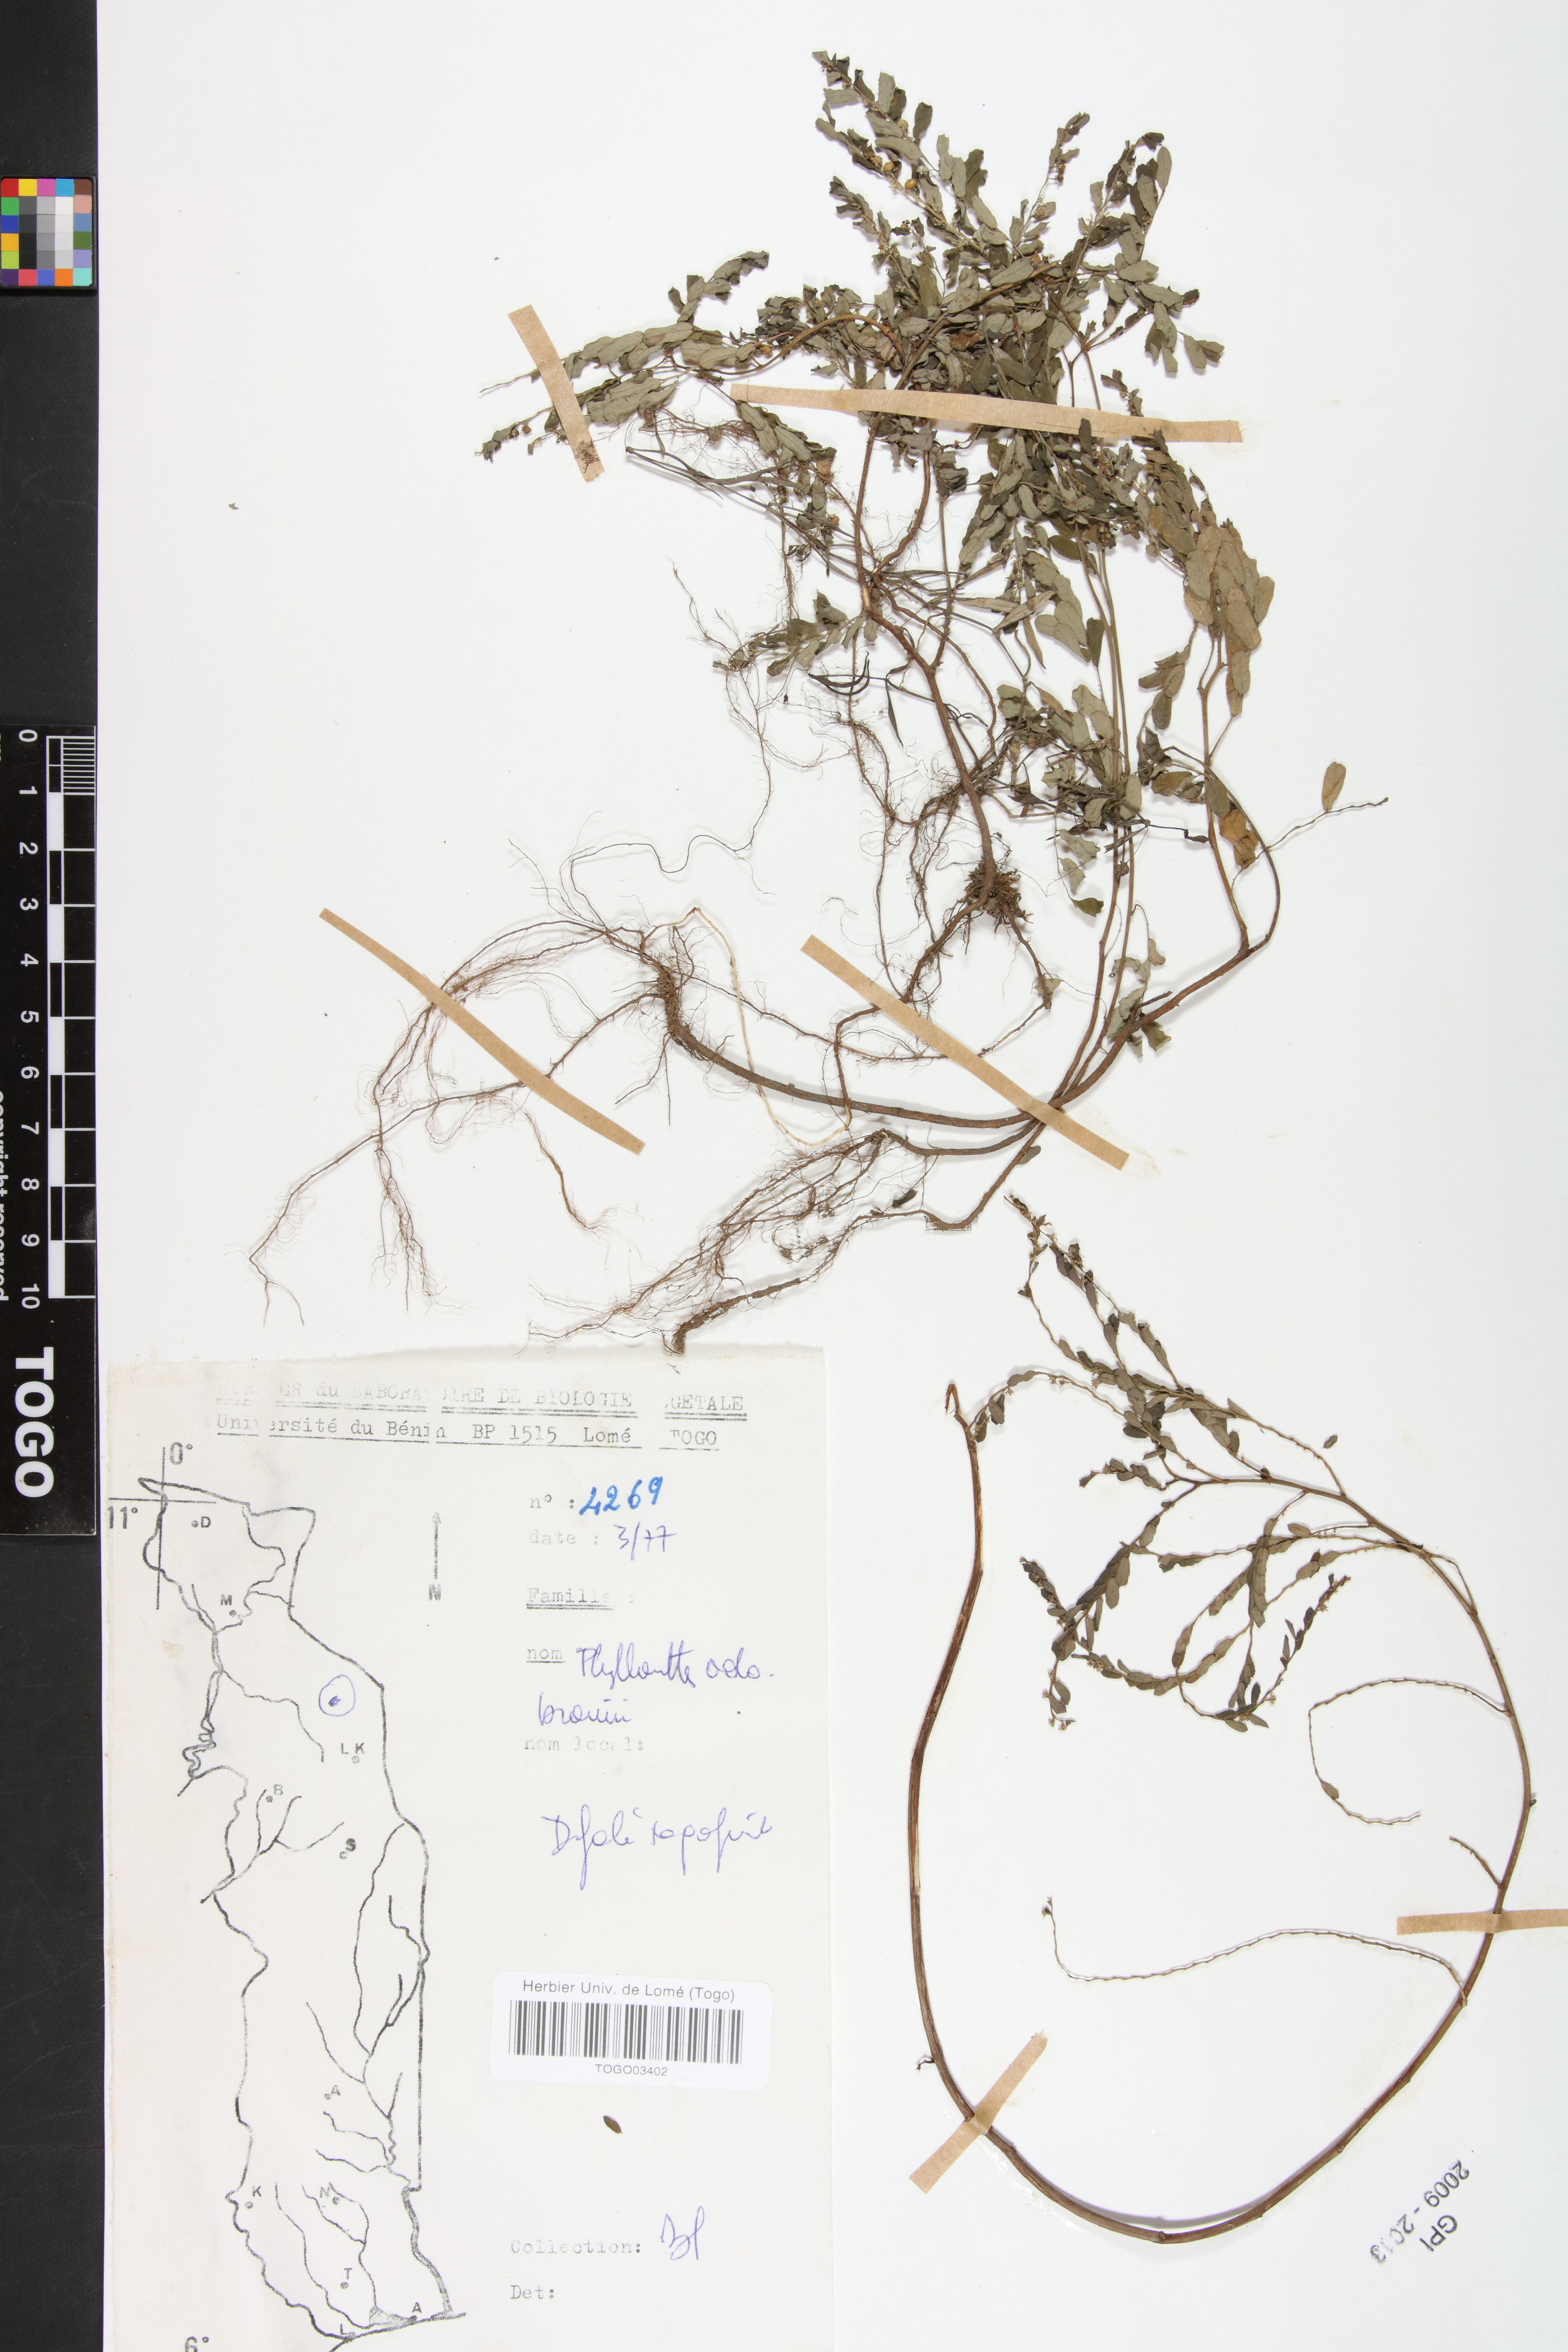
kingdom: Plantae
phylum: Tracheophyta
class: Magnoliopsida
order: Malpighiales
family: Phyllanthaceae
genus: Phyllanthus
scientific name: Phyllanthus odontadenius
